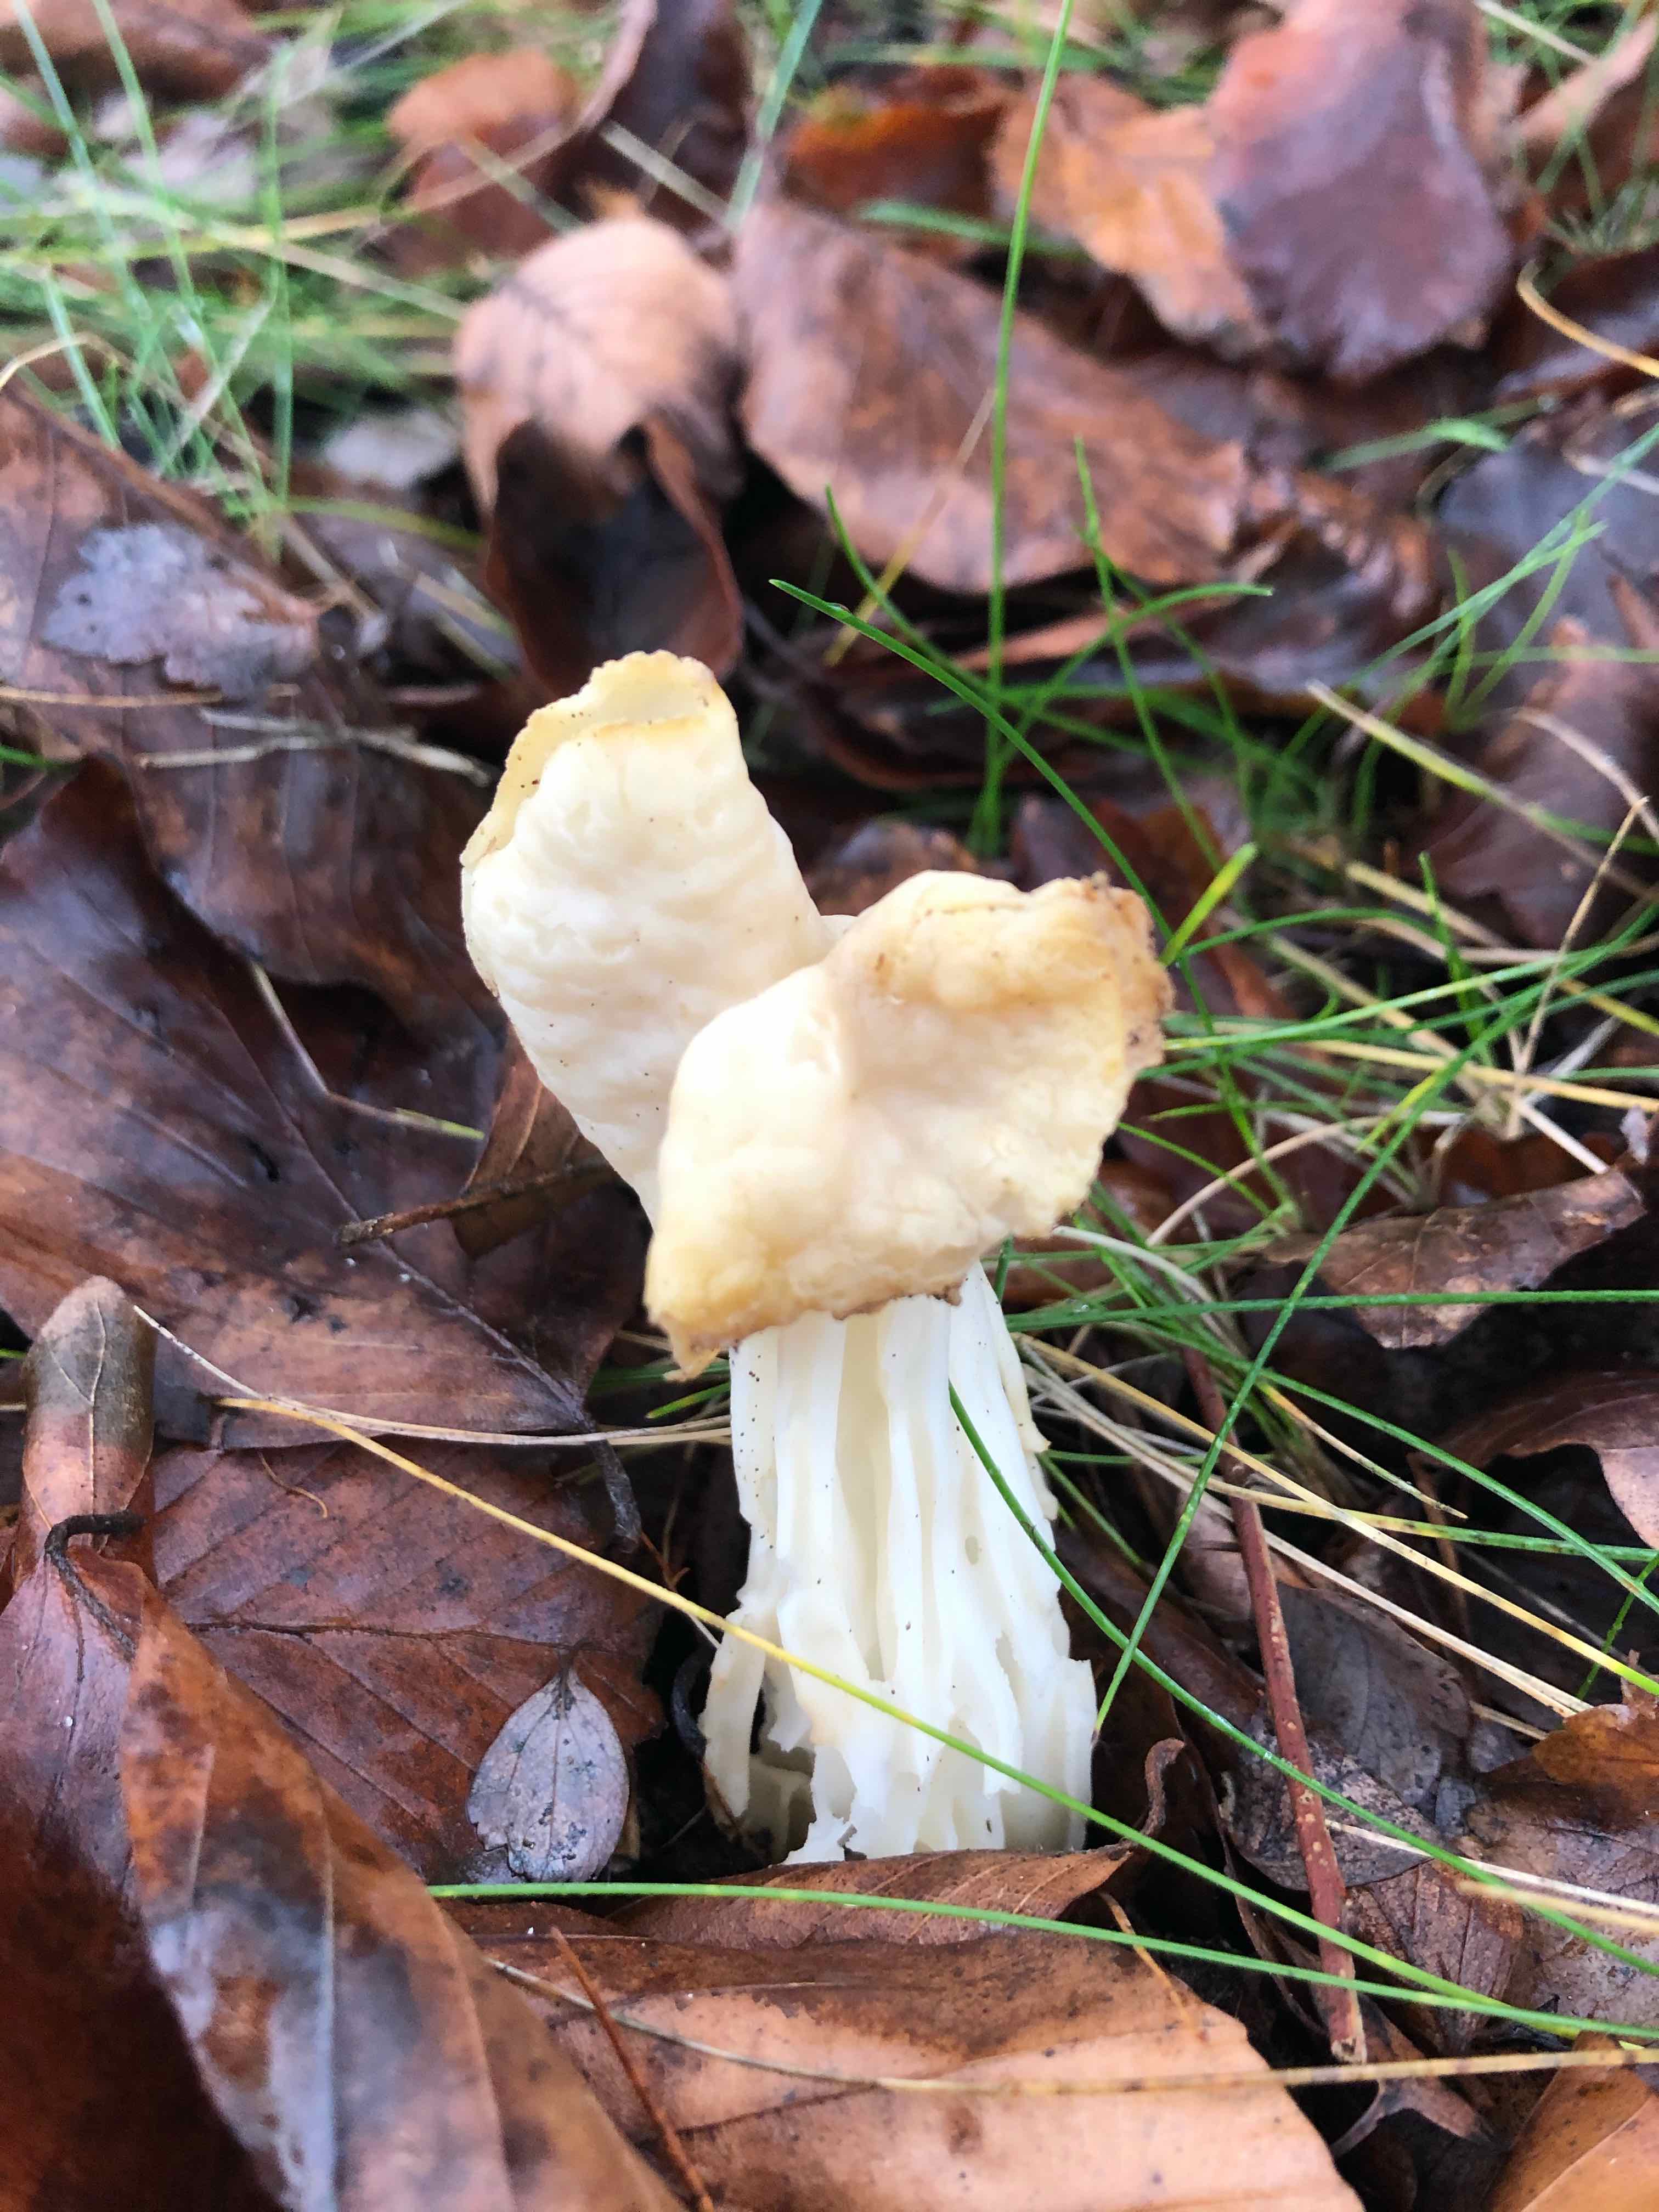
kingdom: Fungi
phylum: Ascomycota
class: Pezizomycetes
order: Pezizales
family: Helvellaceae
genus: Helvella
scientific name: Helvella crispa
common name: kruset foldhat
